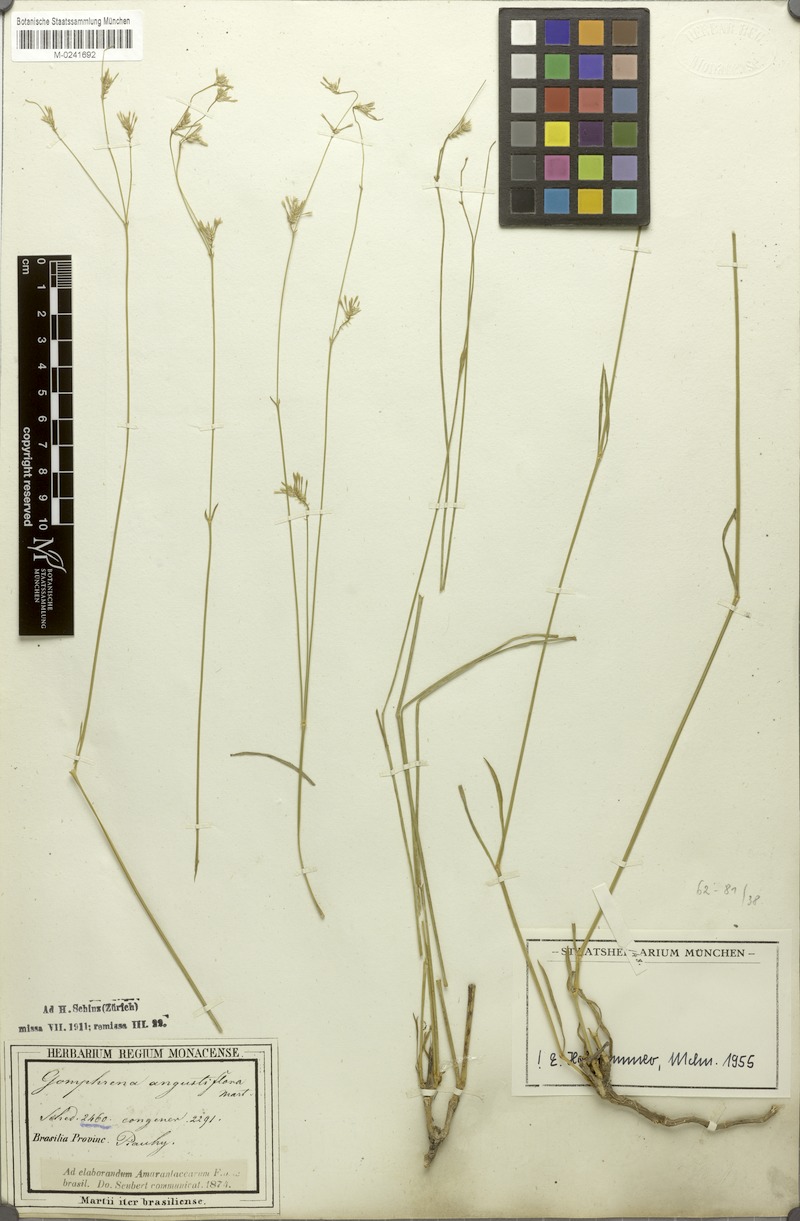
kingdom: Plantae
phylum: Tracheophyta
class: Magnoliopsida
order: Caryophyllales
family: Amaranthaceae
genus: Gomphrena
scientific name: Gomphrena angustiflora
